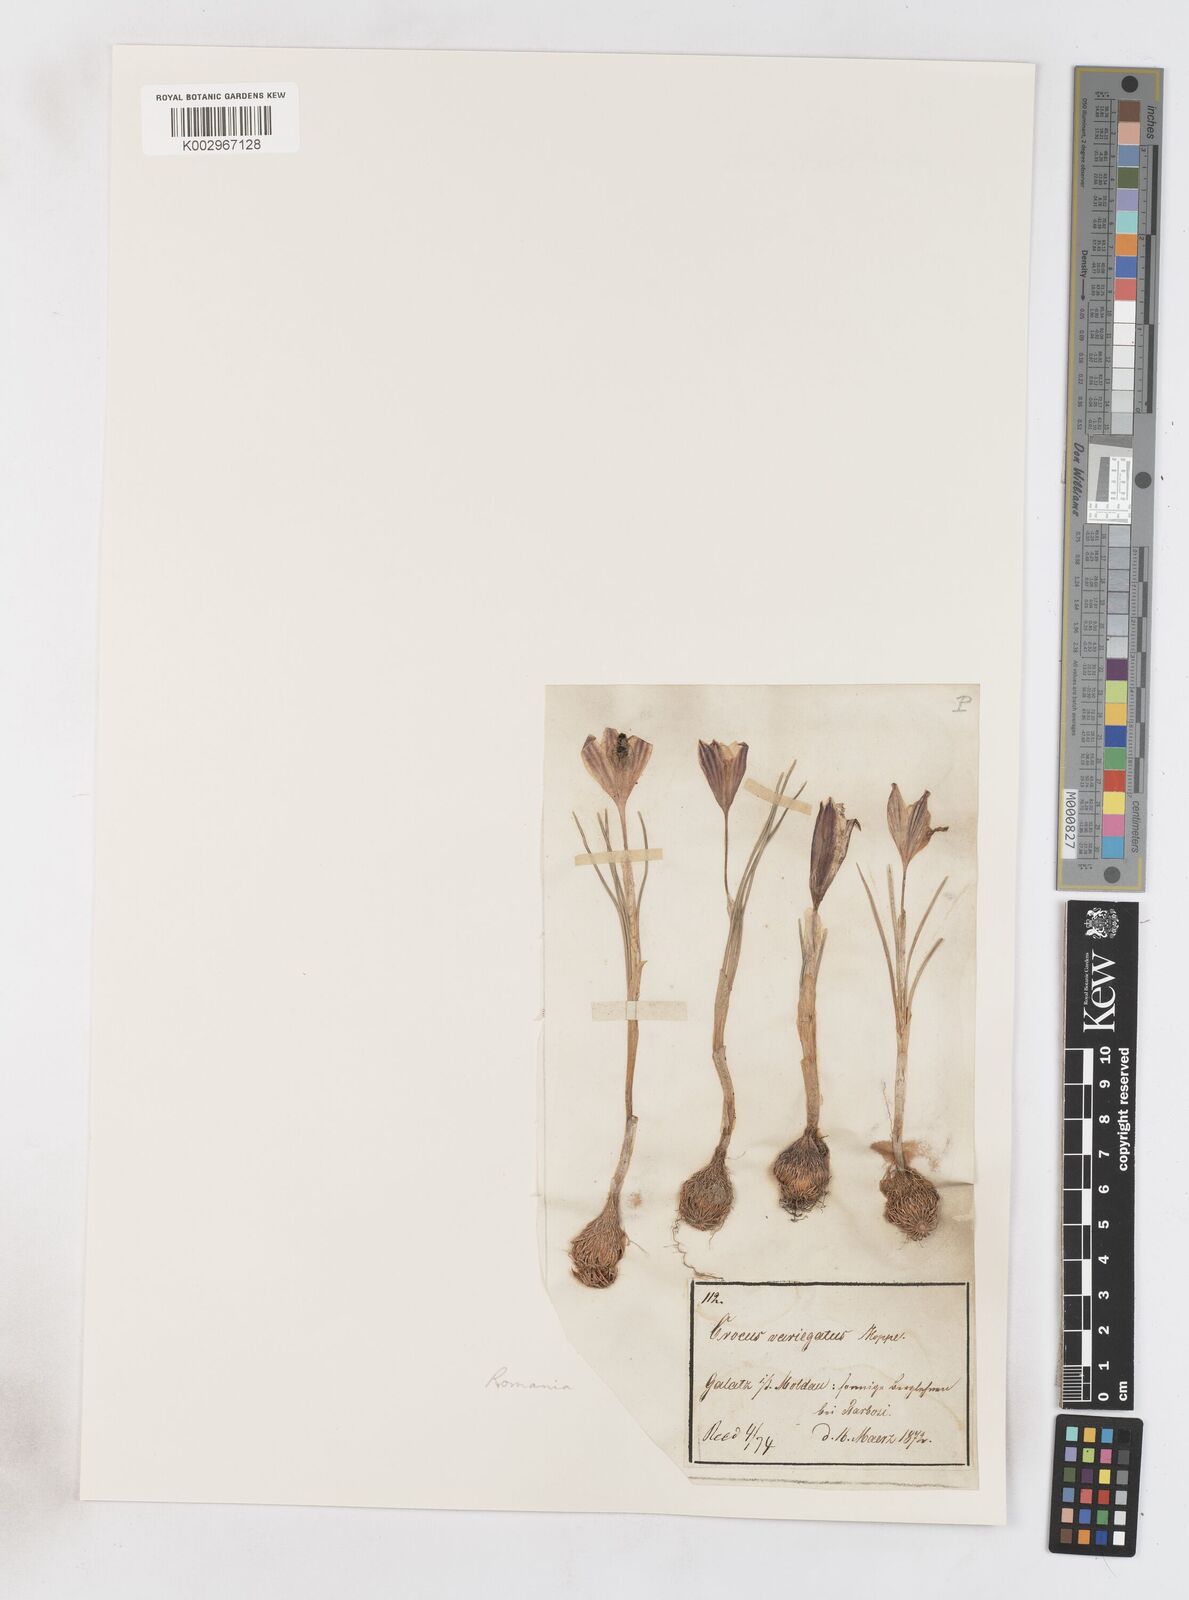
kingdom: Plantae
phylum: Tracheophyta
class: Liliopsida
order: Asparagales
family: Iridaceae
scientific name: Iridaceae
